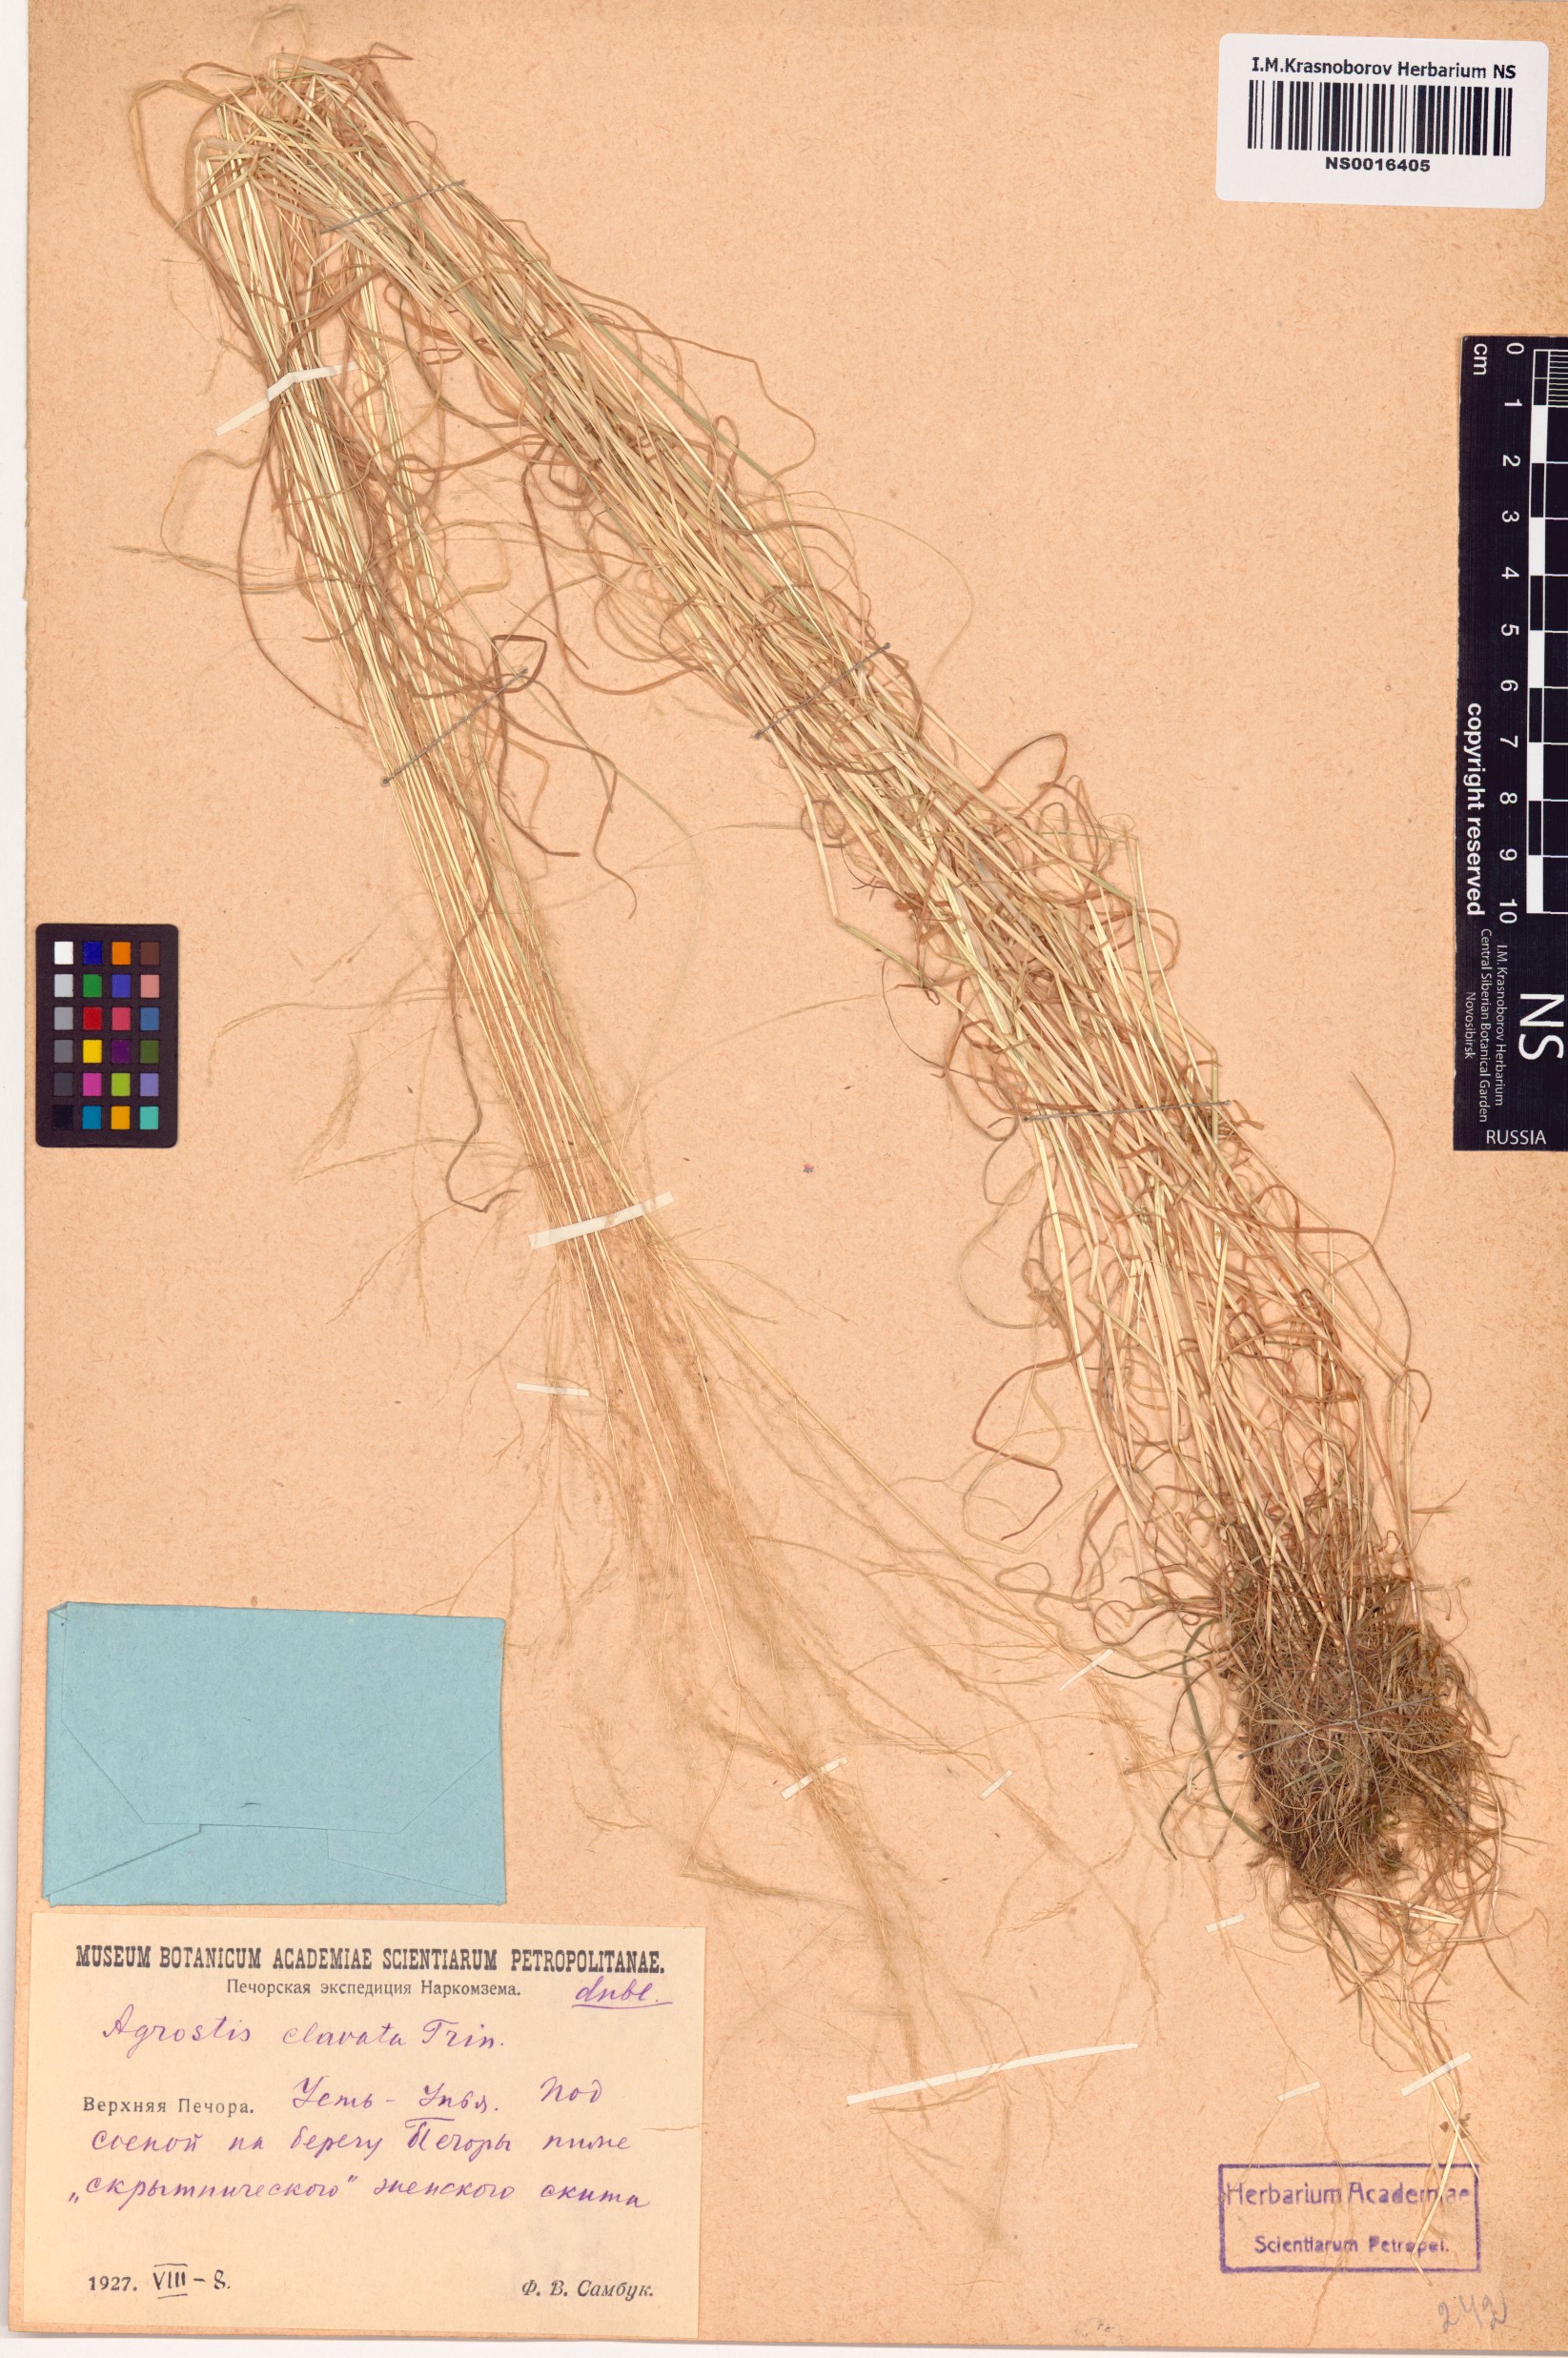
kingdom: Plantae
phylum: Tracheophyta
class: Liliopsida
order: Poales
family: Poaceae
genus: Agrostis
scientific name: Agrostis clavata
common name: Clavate bent
